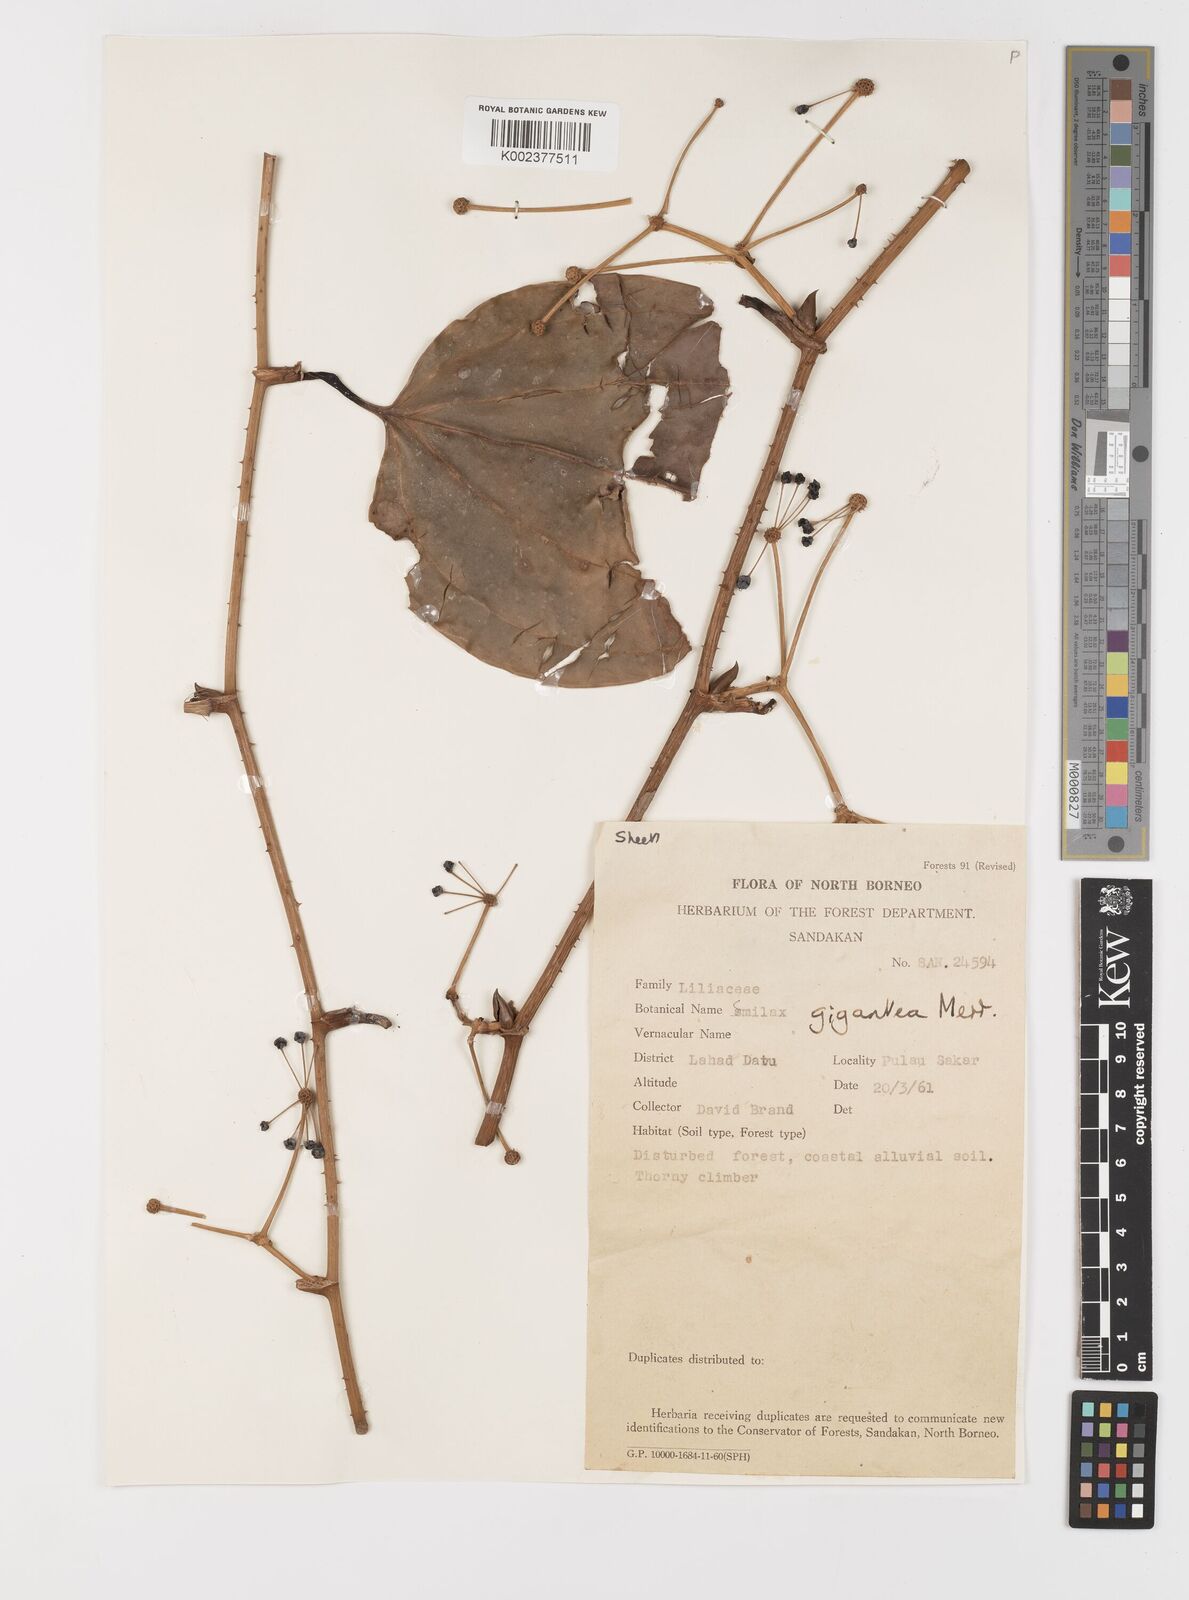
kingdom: Plantae
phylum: Tracheophyta
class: Liliopsida
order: Liliales
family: Smilacaceae
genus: Smilax
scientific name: Smilax gigantea
